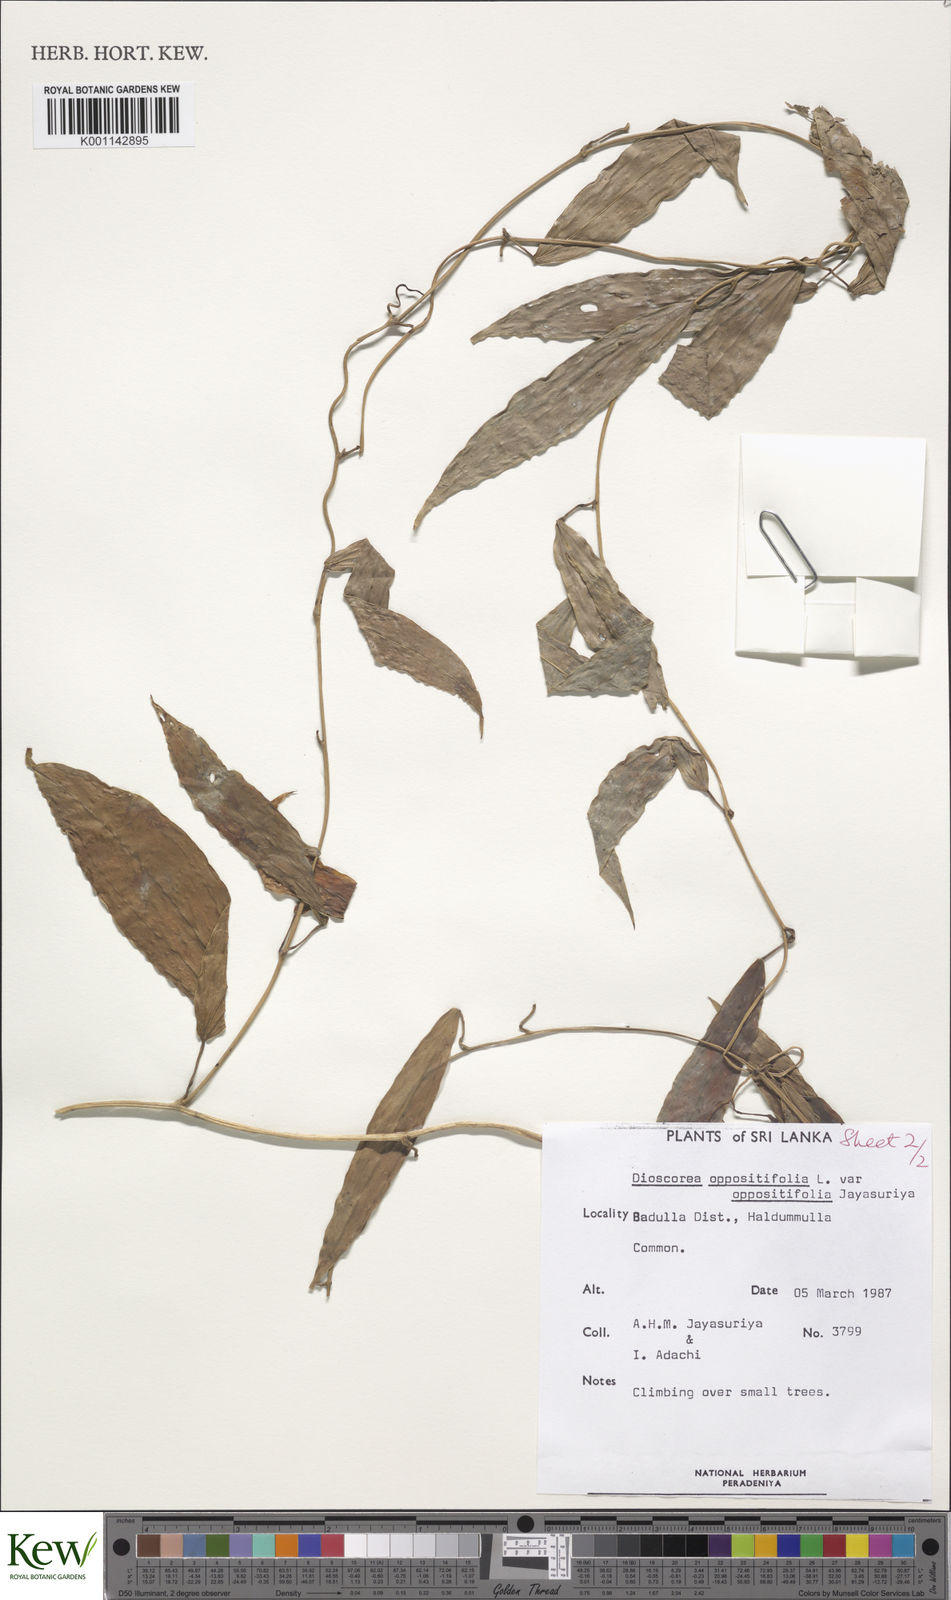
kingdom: Plantae
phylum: Tracheophyta
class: Liliopsida
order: Dioscoreales
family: Dioscoreaceae
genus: Dioscorea
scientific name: Dioscorea oppositifolia
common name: Chinese yam
